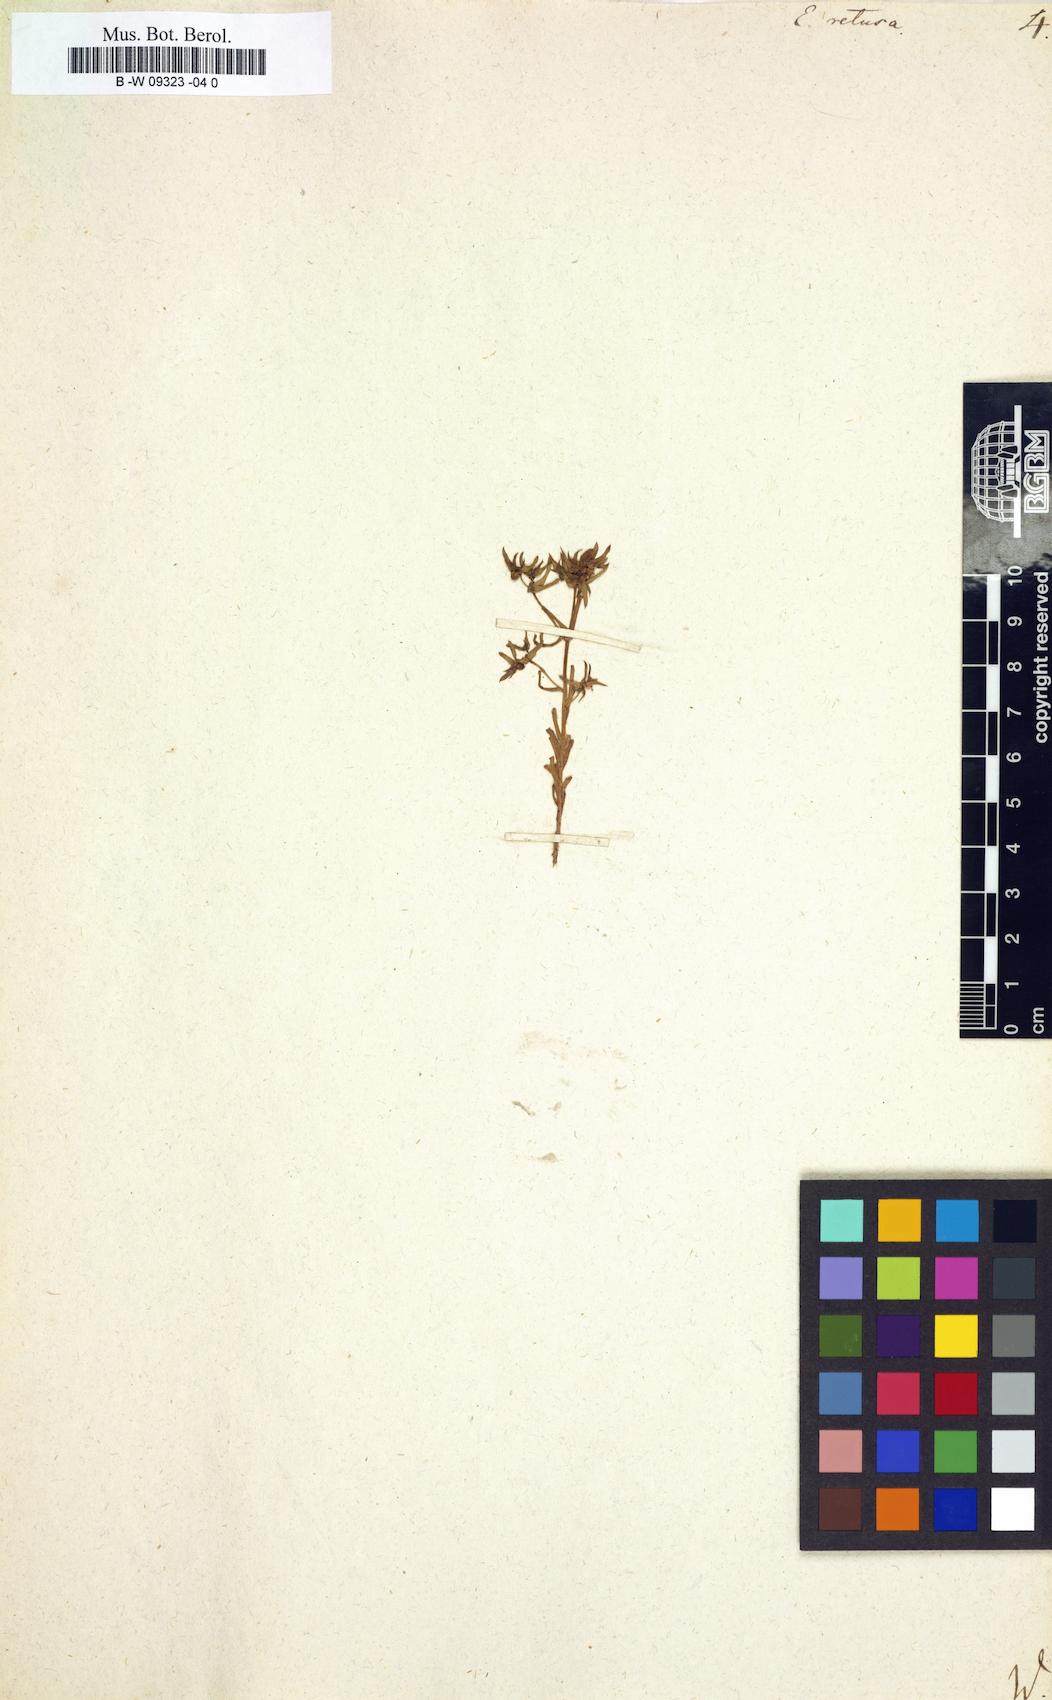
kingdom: Plantae
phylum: Tracheophyta
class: Magnoliopsida
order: Malpighiales
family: Euphorbiaceae
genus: Euphorbia
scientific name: Euphorbia retusa
